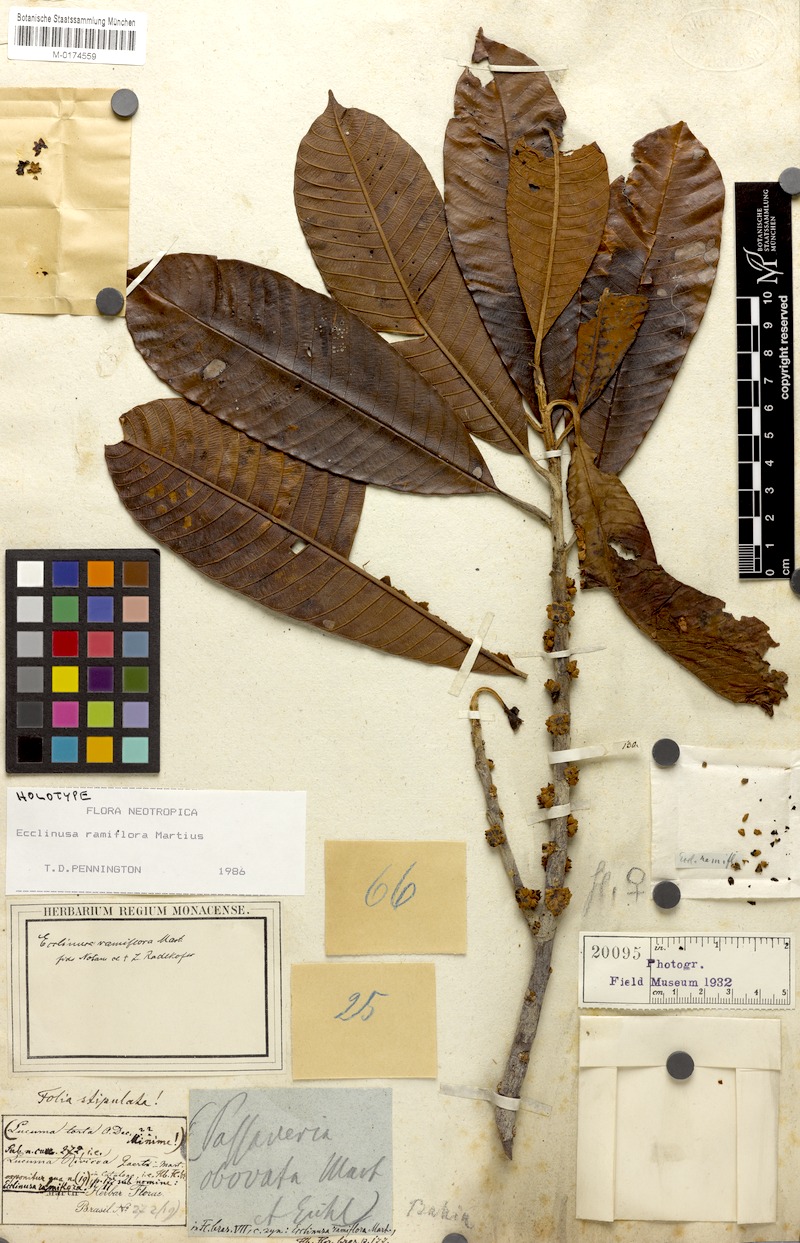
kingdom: Plantae
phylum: Tracheophyta
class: Magnoliopsida
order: Ericales
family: Sapotaceae
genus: Ecclinusa
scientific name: Ecclinusa ramiflora
